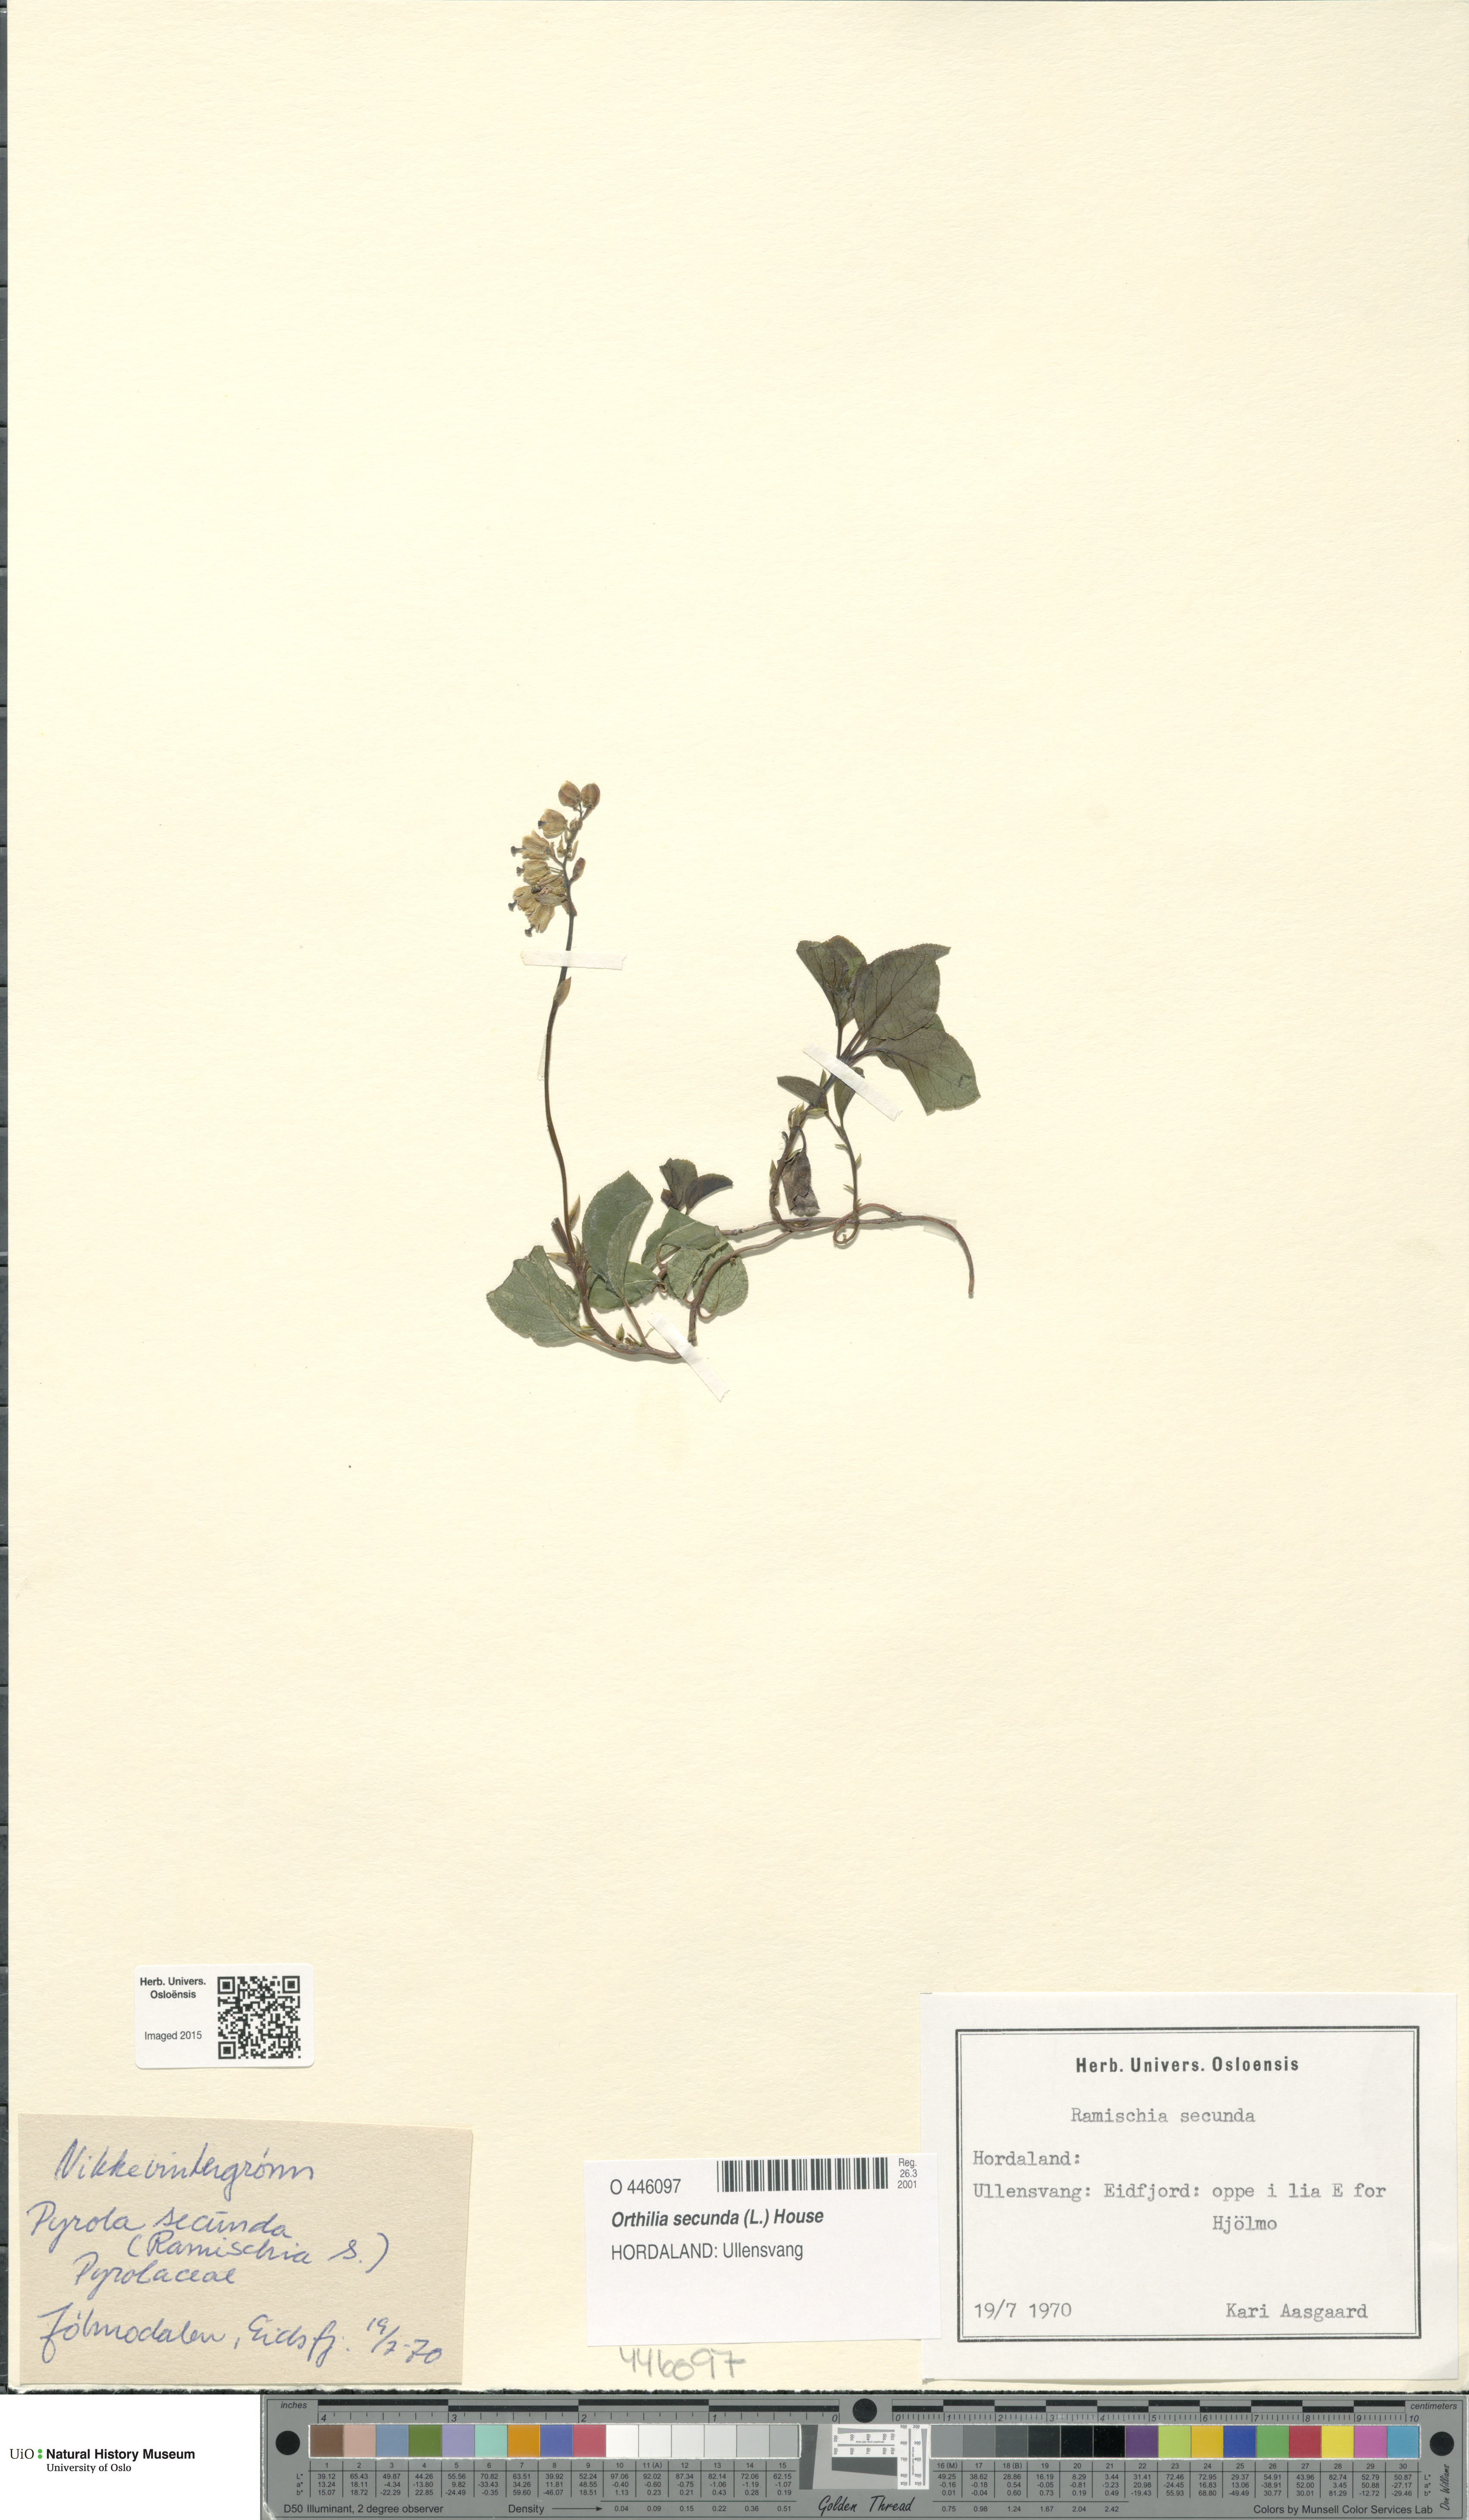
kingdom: Plantae
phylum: Tracheophyta
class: Magnoliopsida
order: Ericales
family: Ericaceae
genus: Orthilia
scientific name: Orthilia secunda
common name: One-sided orthilia
